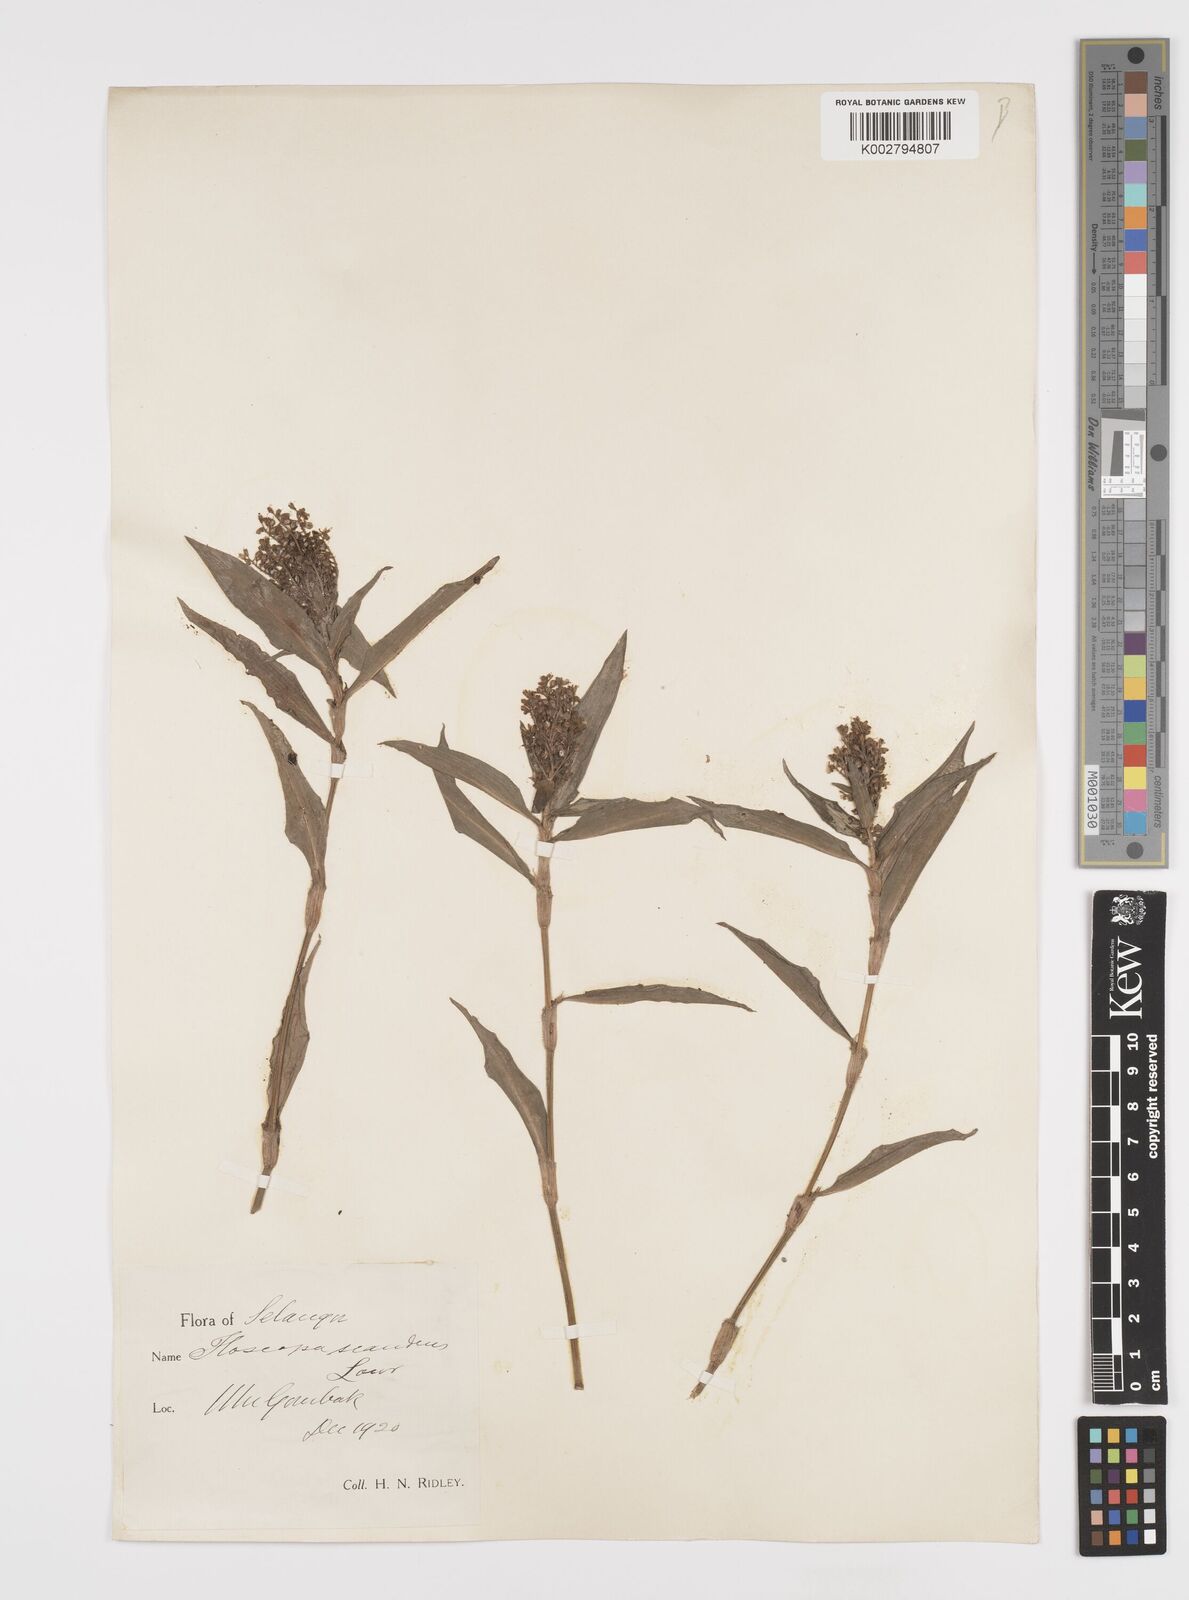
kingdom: Plantae
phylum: Tracheophyta
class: Liliopsida
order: Commelinales
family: Commelinaceae
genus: Floscopa
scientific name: Floscopa scandens
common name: Climbing flower cup
